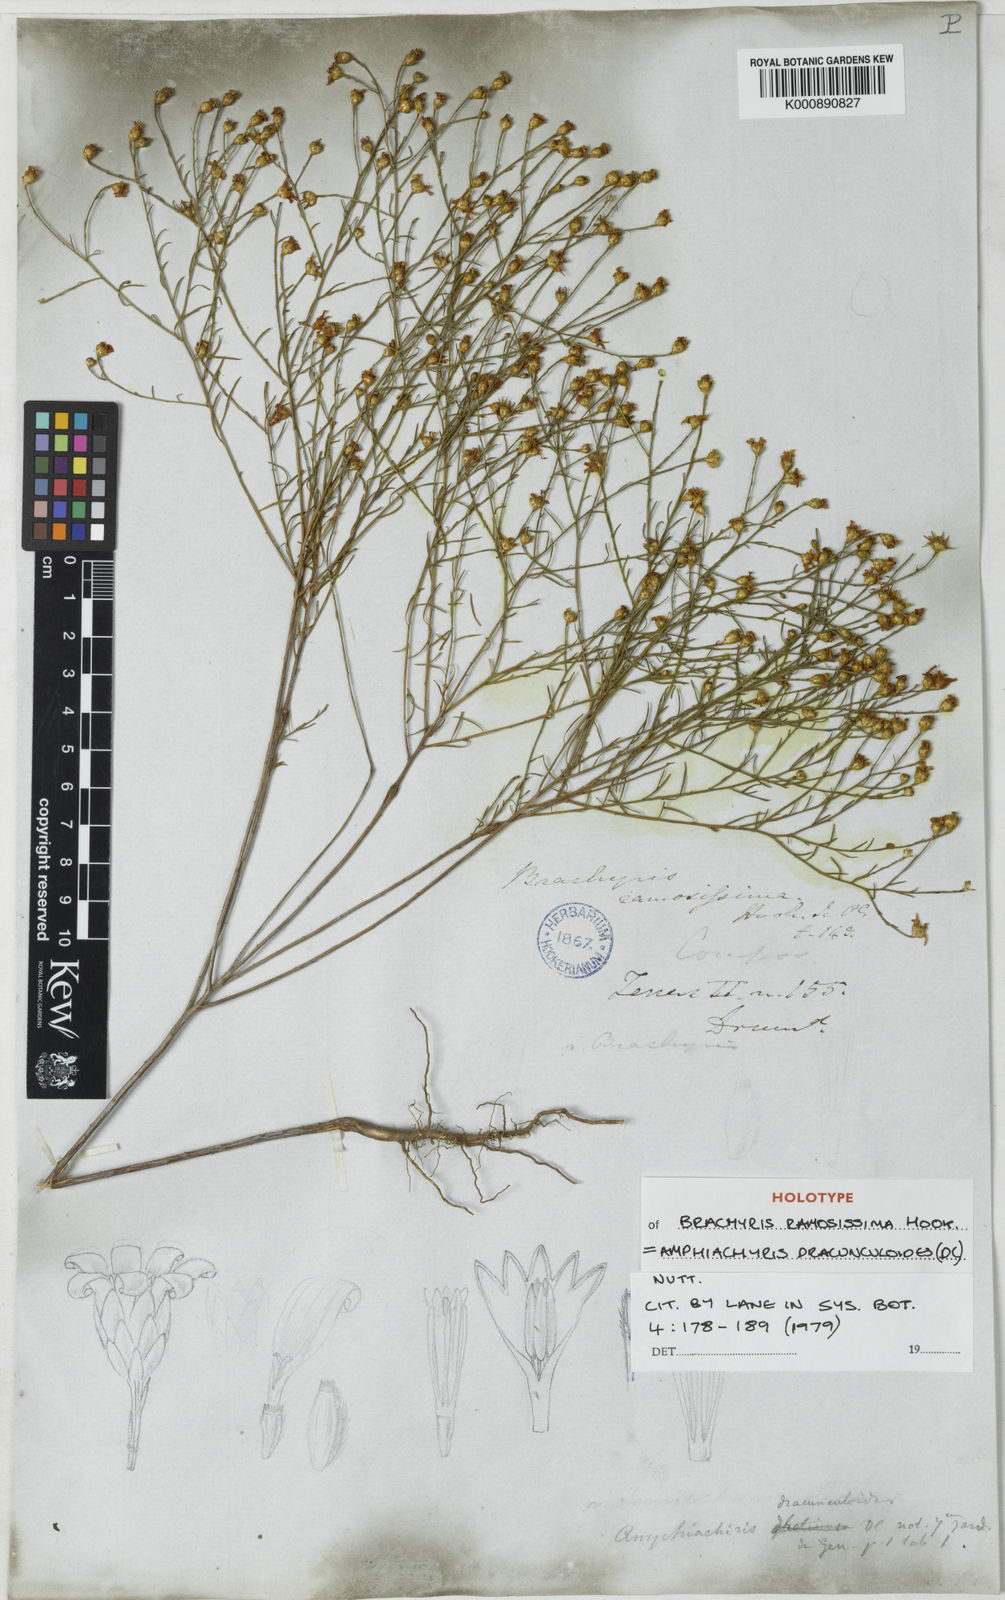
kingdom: Plantae
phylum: Tracheophyta
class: Magnoliopsida
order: Asterales
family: Asteraceae
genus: Amphiachyris
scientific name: Amphiachyris dracunculoides
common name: Broomweed
